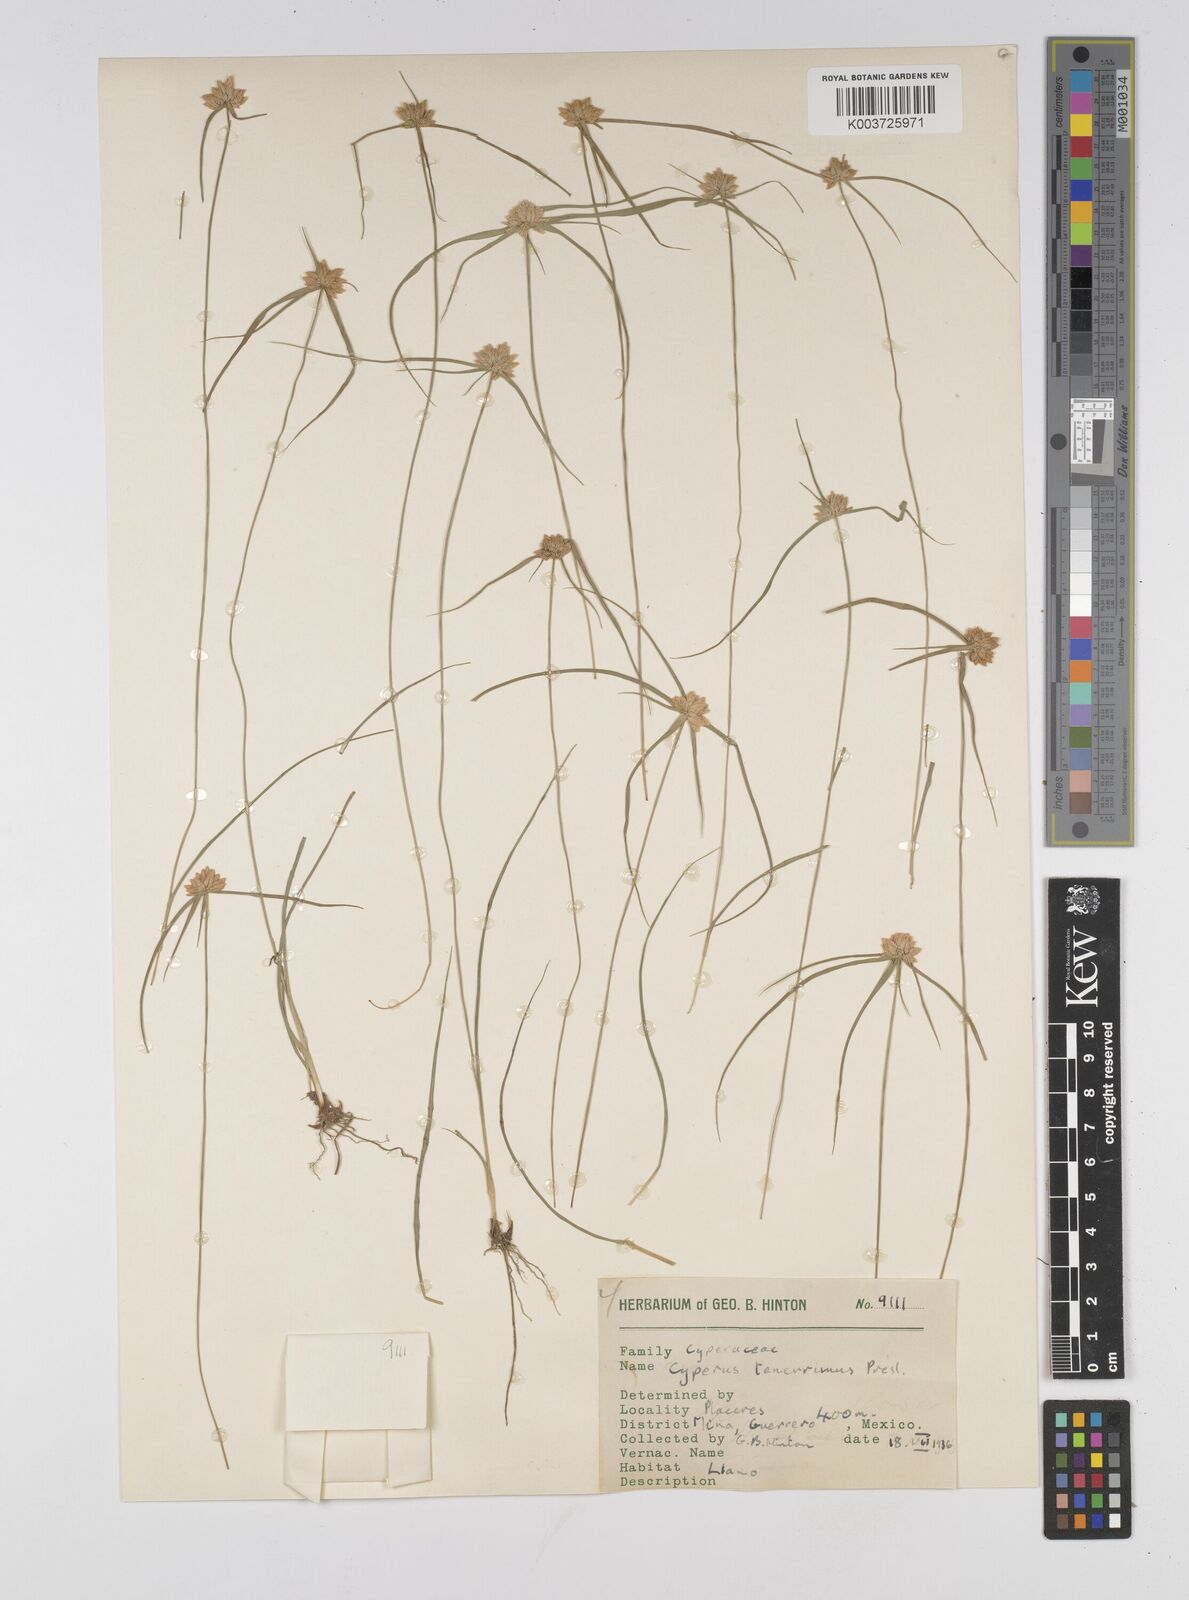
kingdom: Plantae
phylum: Tracheophyta
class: Liliopsida
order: Poales
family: Cyperaceae
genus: Cyperus
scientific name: Cyperus tenerrimus
